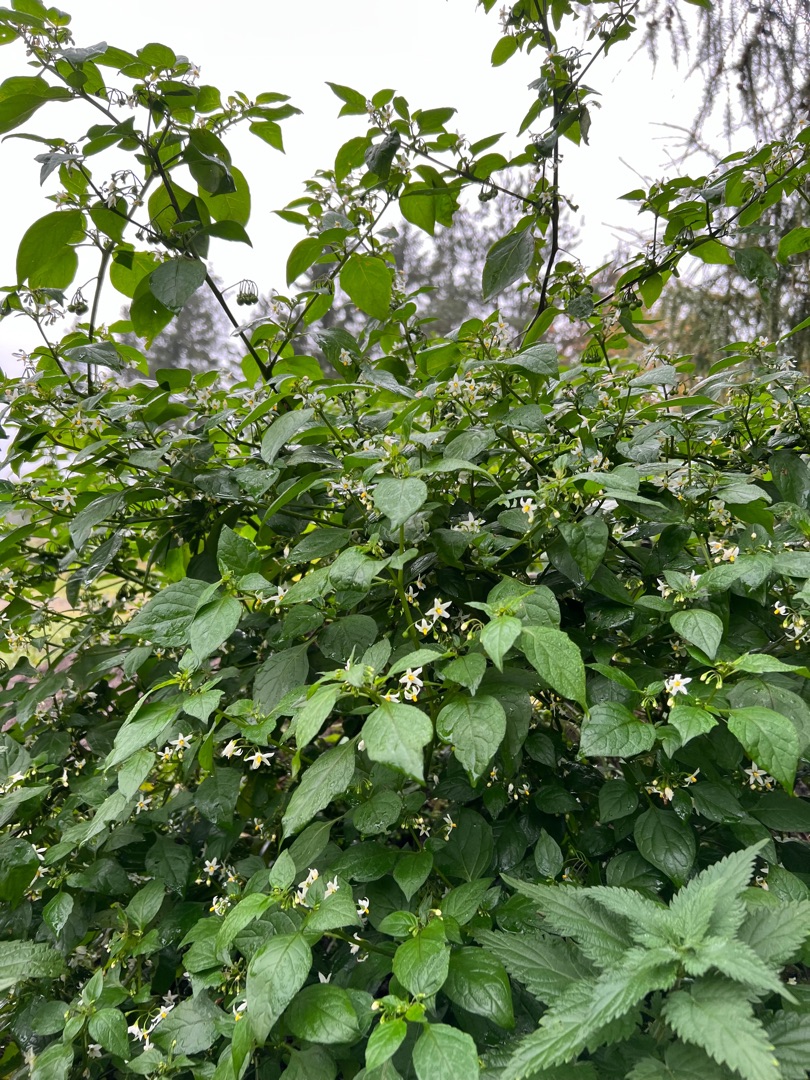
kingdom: Plantae
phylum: Tracheophyta
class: Magnoliopsida
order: Solanales
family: Solanaceae
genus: Solanum
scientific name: Solanum nigrum
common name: Sort natskygge
